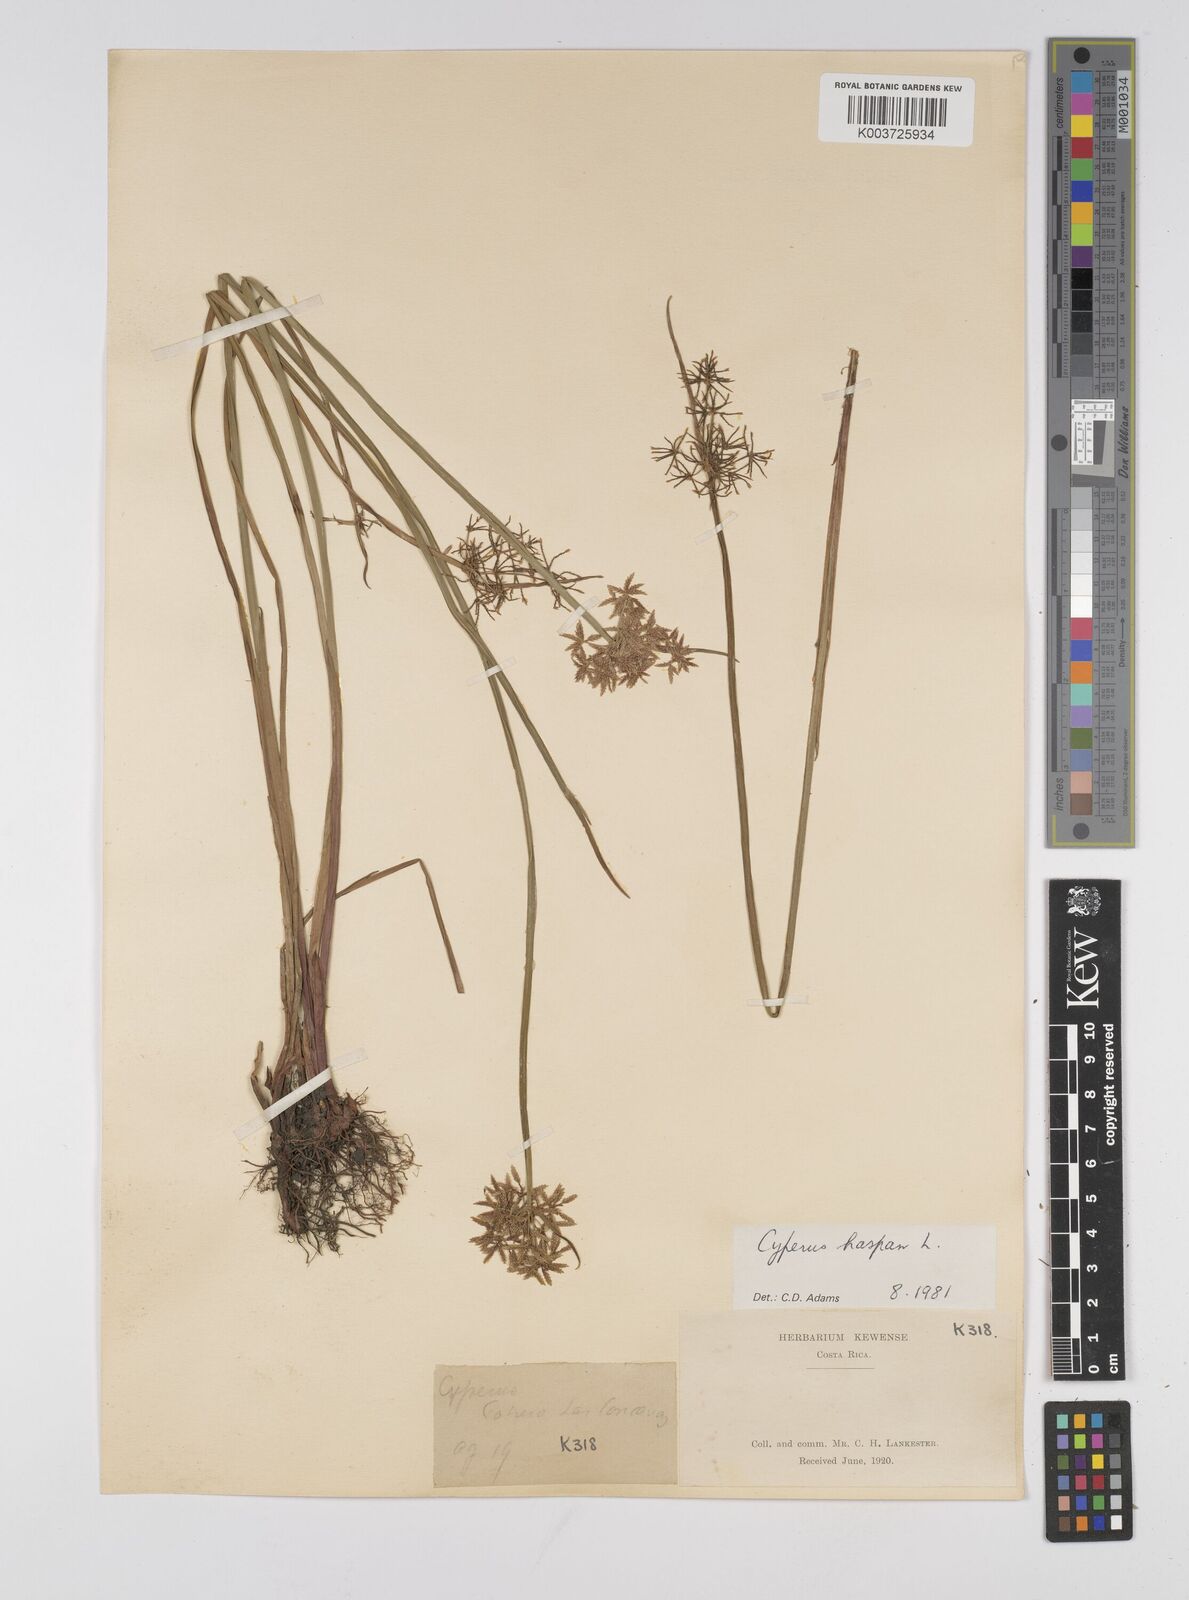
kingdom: Plantae
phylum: Tracheophyta
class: Liliopsida
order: Poales
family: Cyperaceae
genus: Cyperus
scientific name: Cyperus haspan
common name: Haspan flatsedge
